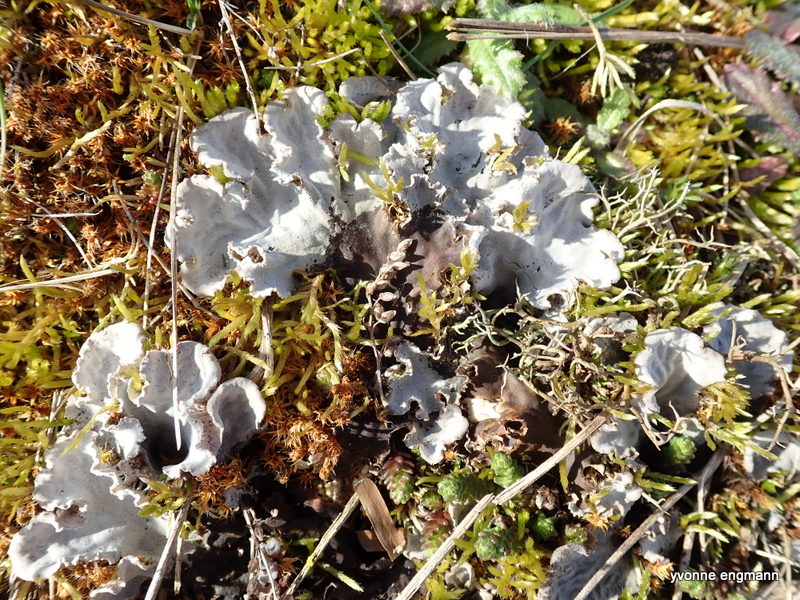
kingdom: Fungi
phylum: Ascomycota
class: Lecanoromycetes
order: Peltigerales
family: Peltigeraceae
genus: Peltigera
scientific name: Peltigera canina
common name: hunde-skjoldlav
